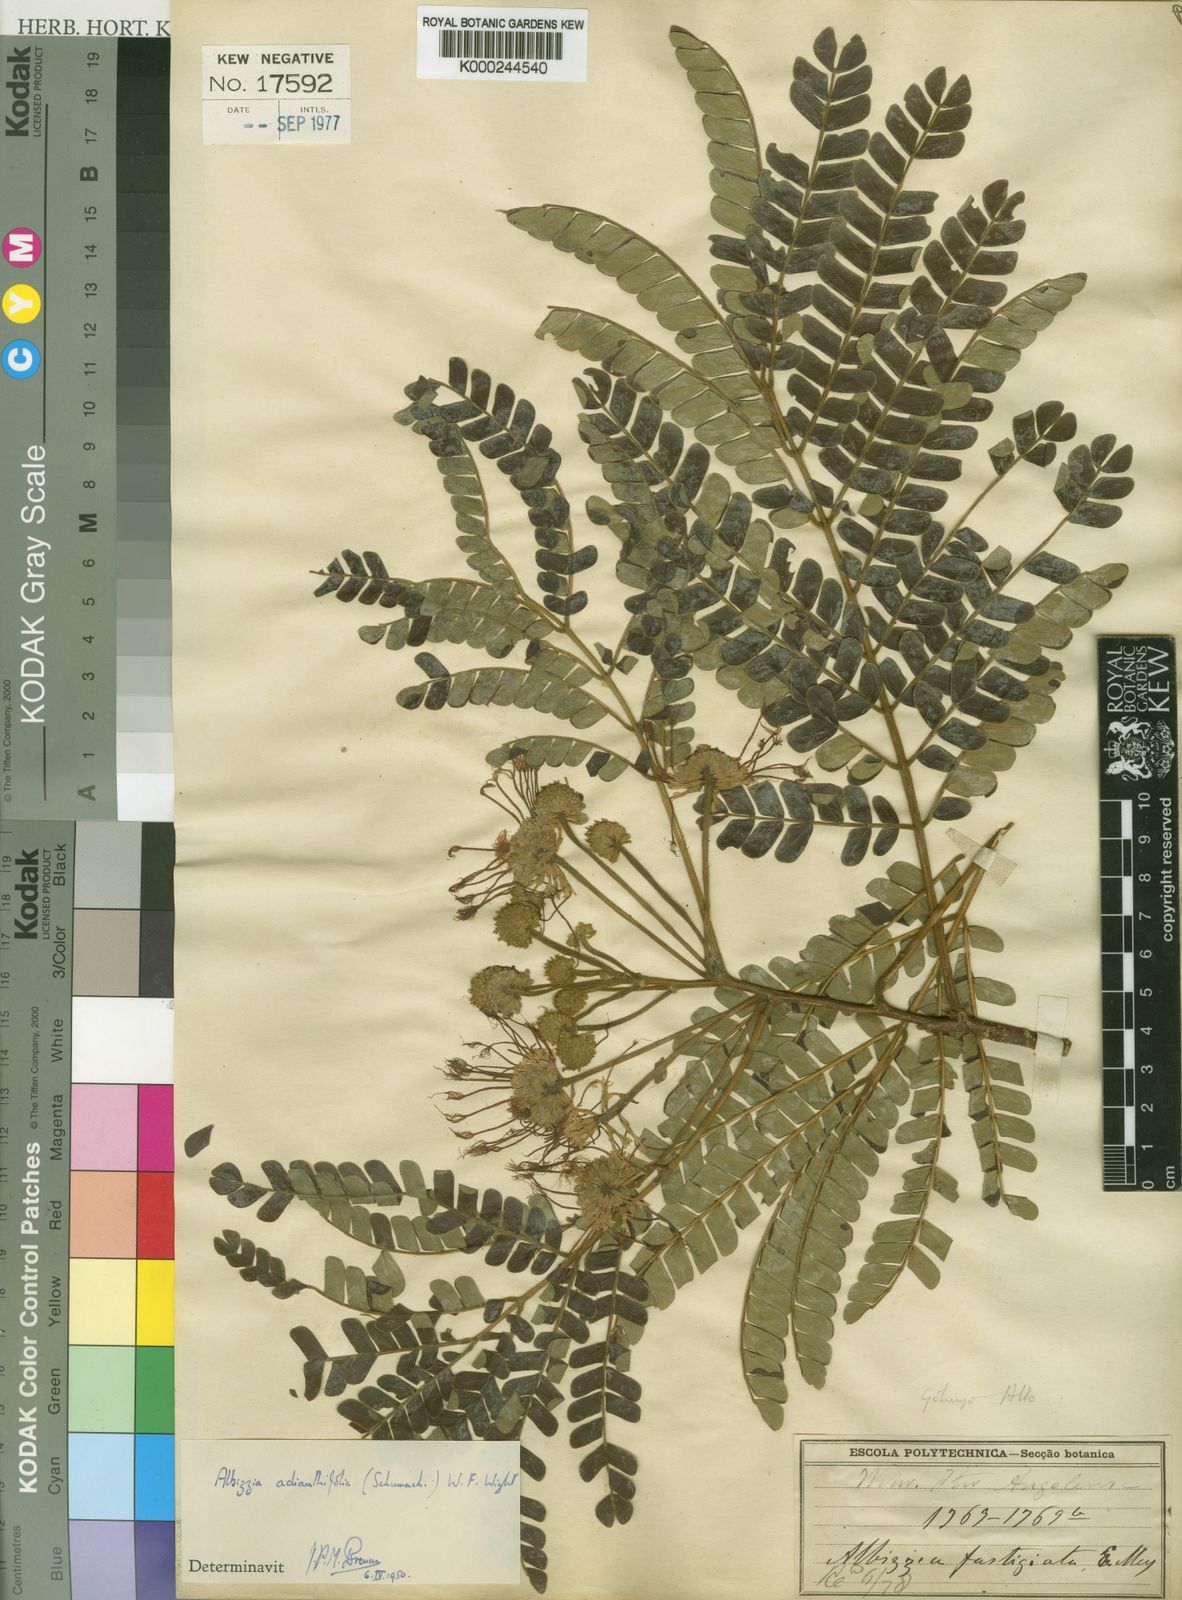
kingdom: Plantae
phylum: Tracheophyta
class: Magnoliopsida
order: Fabales
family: Fabaceae
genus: Albizia
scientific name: Albizia adianthifolia
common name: West african albizia
